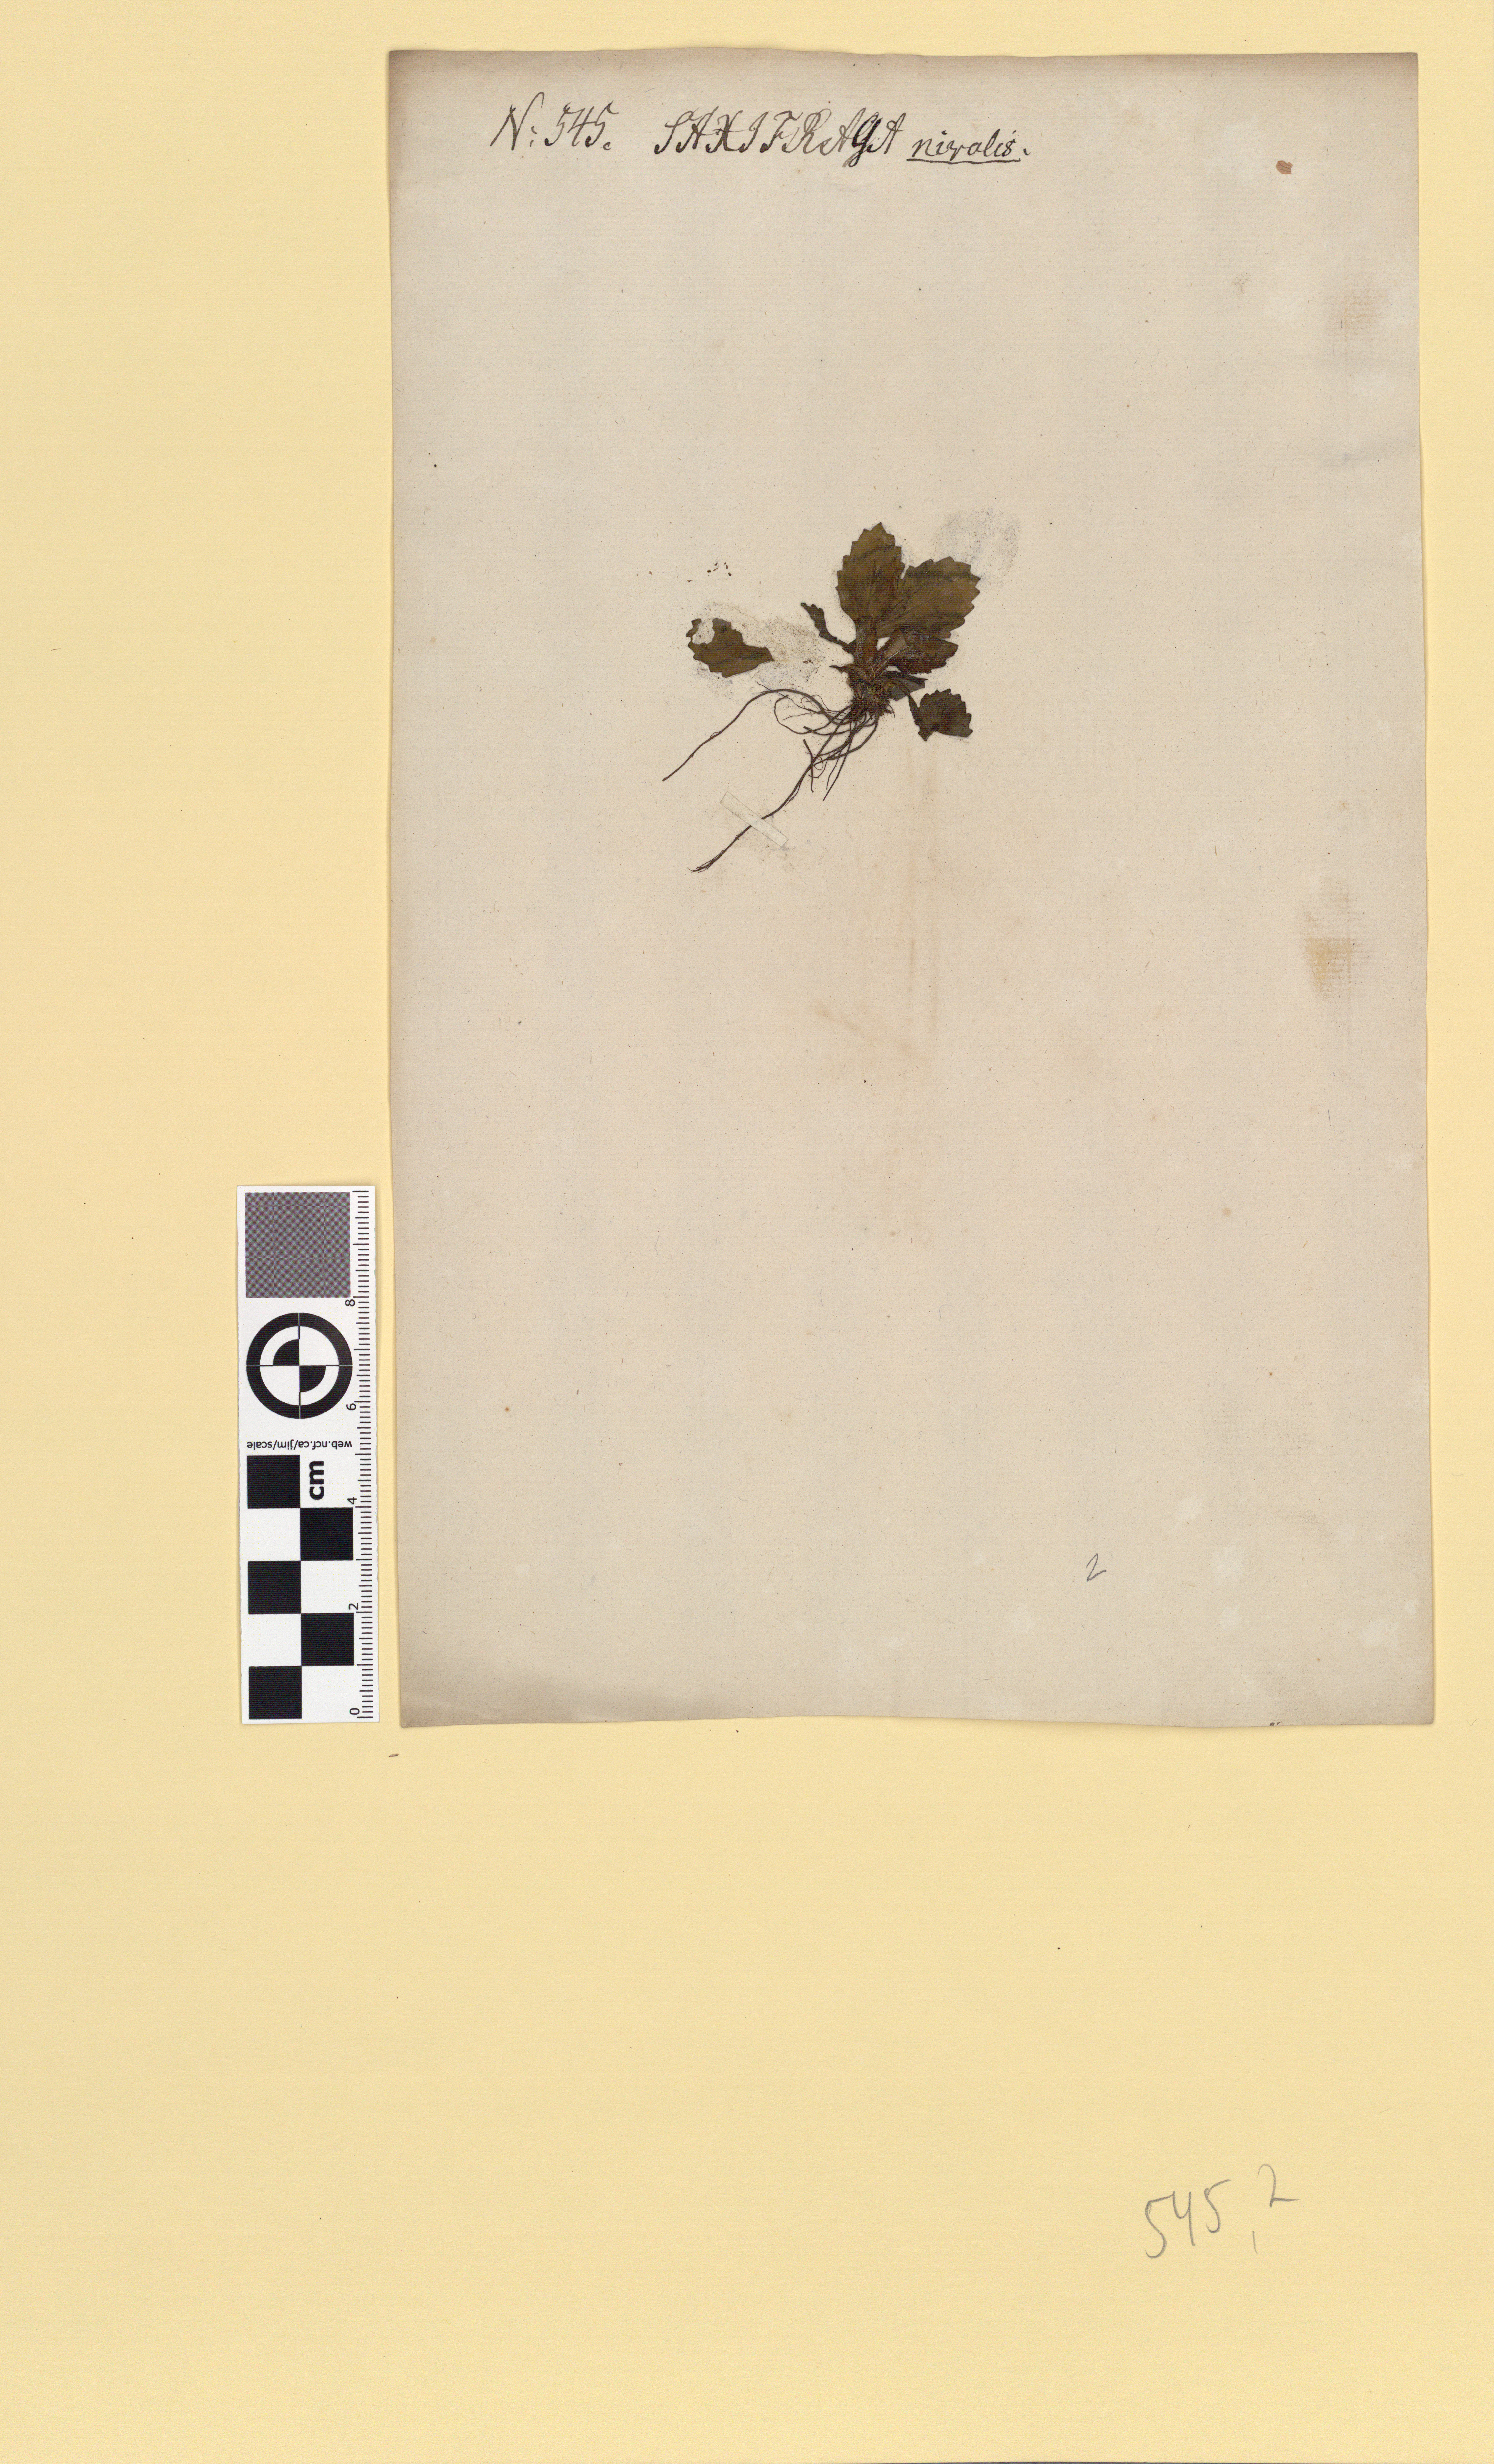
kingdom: Plantae
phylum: Tracheophyta
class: Magnoliopsida
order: Saxifragales
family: Saxifragaceae
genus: Micranthes
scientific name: Micranthes nivalis
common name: Alpine saxifrage
